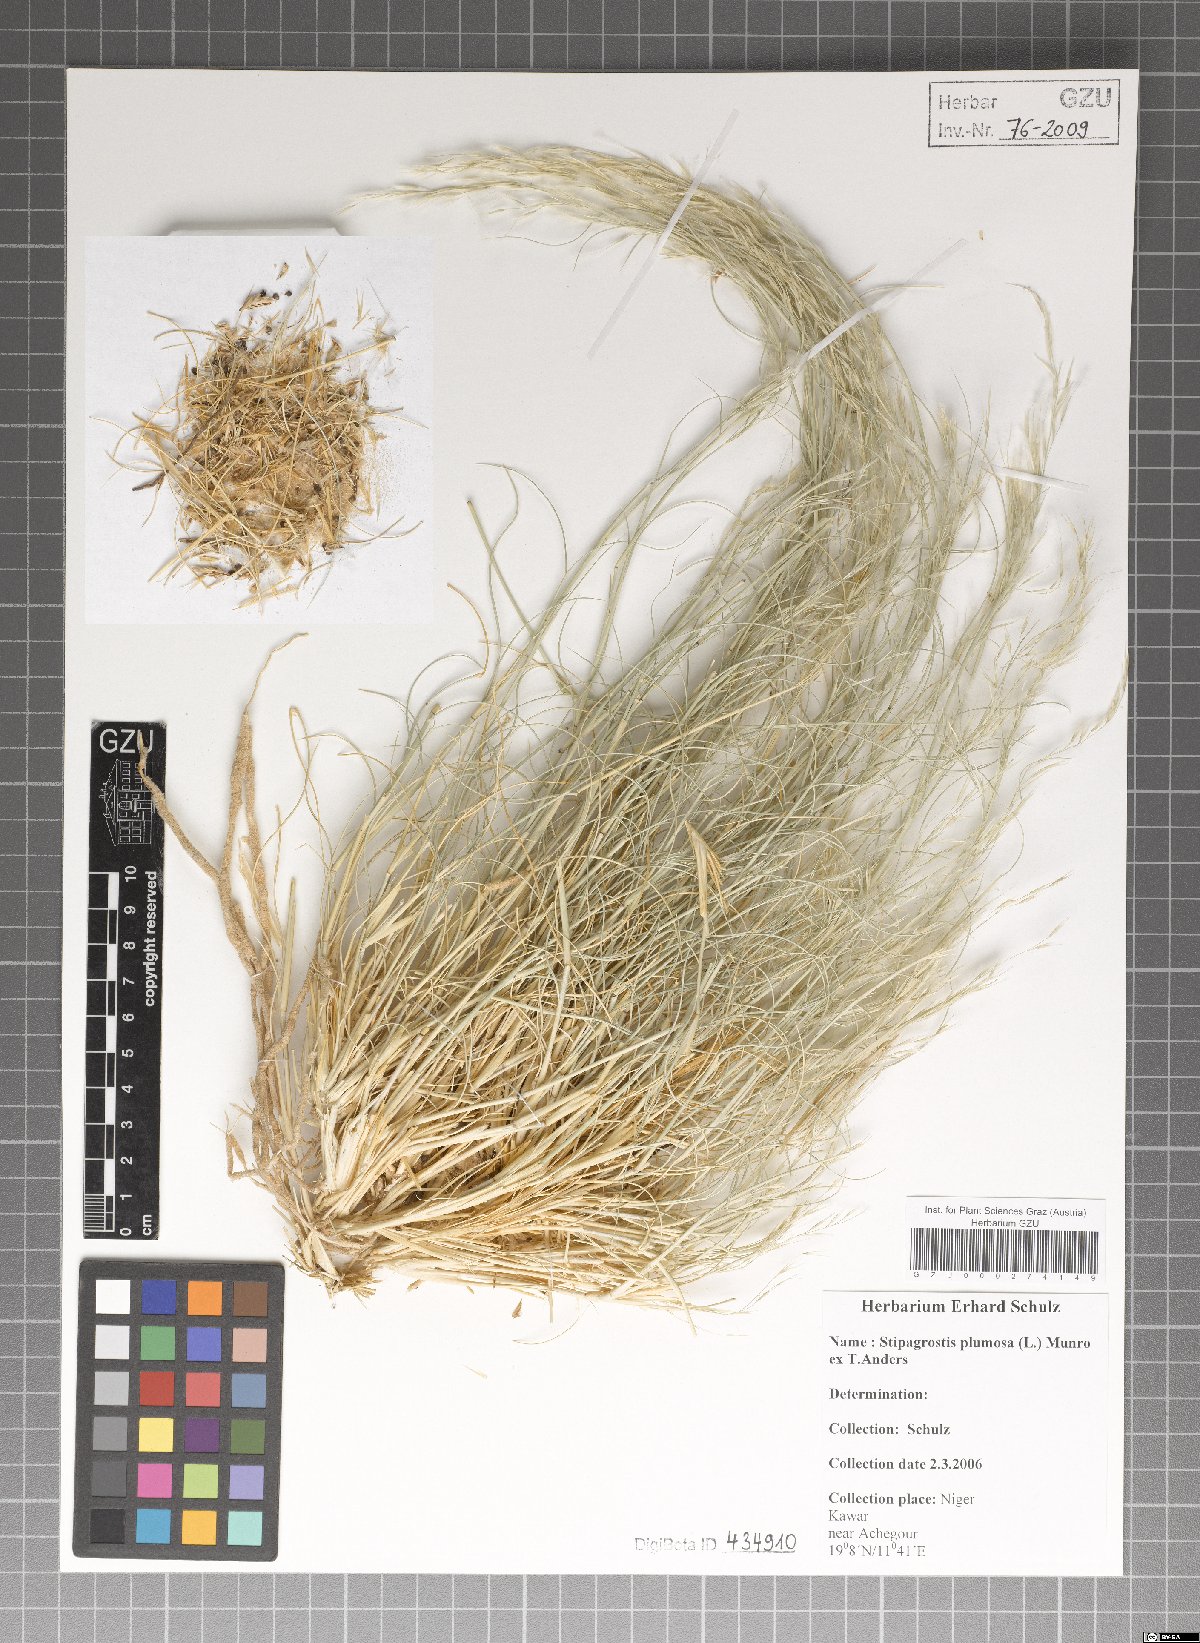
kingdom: Plantae
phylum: Tracheophyta
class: Liliopsida
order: Poales
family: Poaceae
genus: Stipagrostis
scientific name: Stipagrostis plumosa
